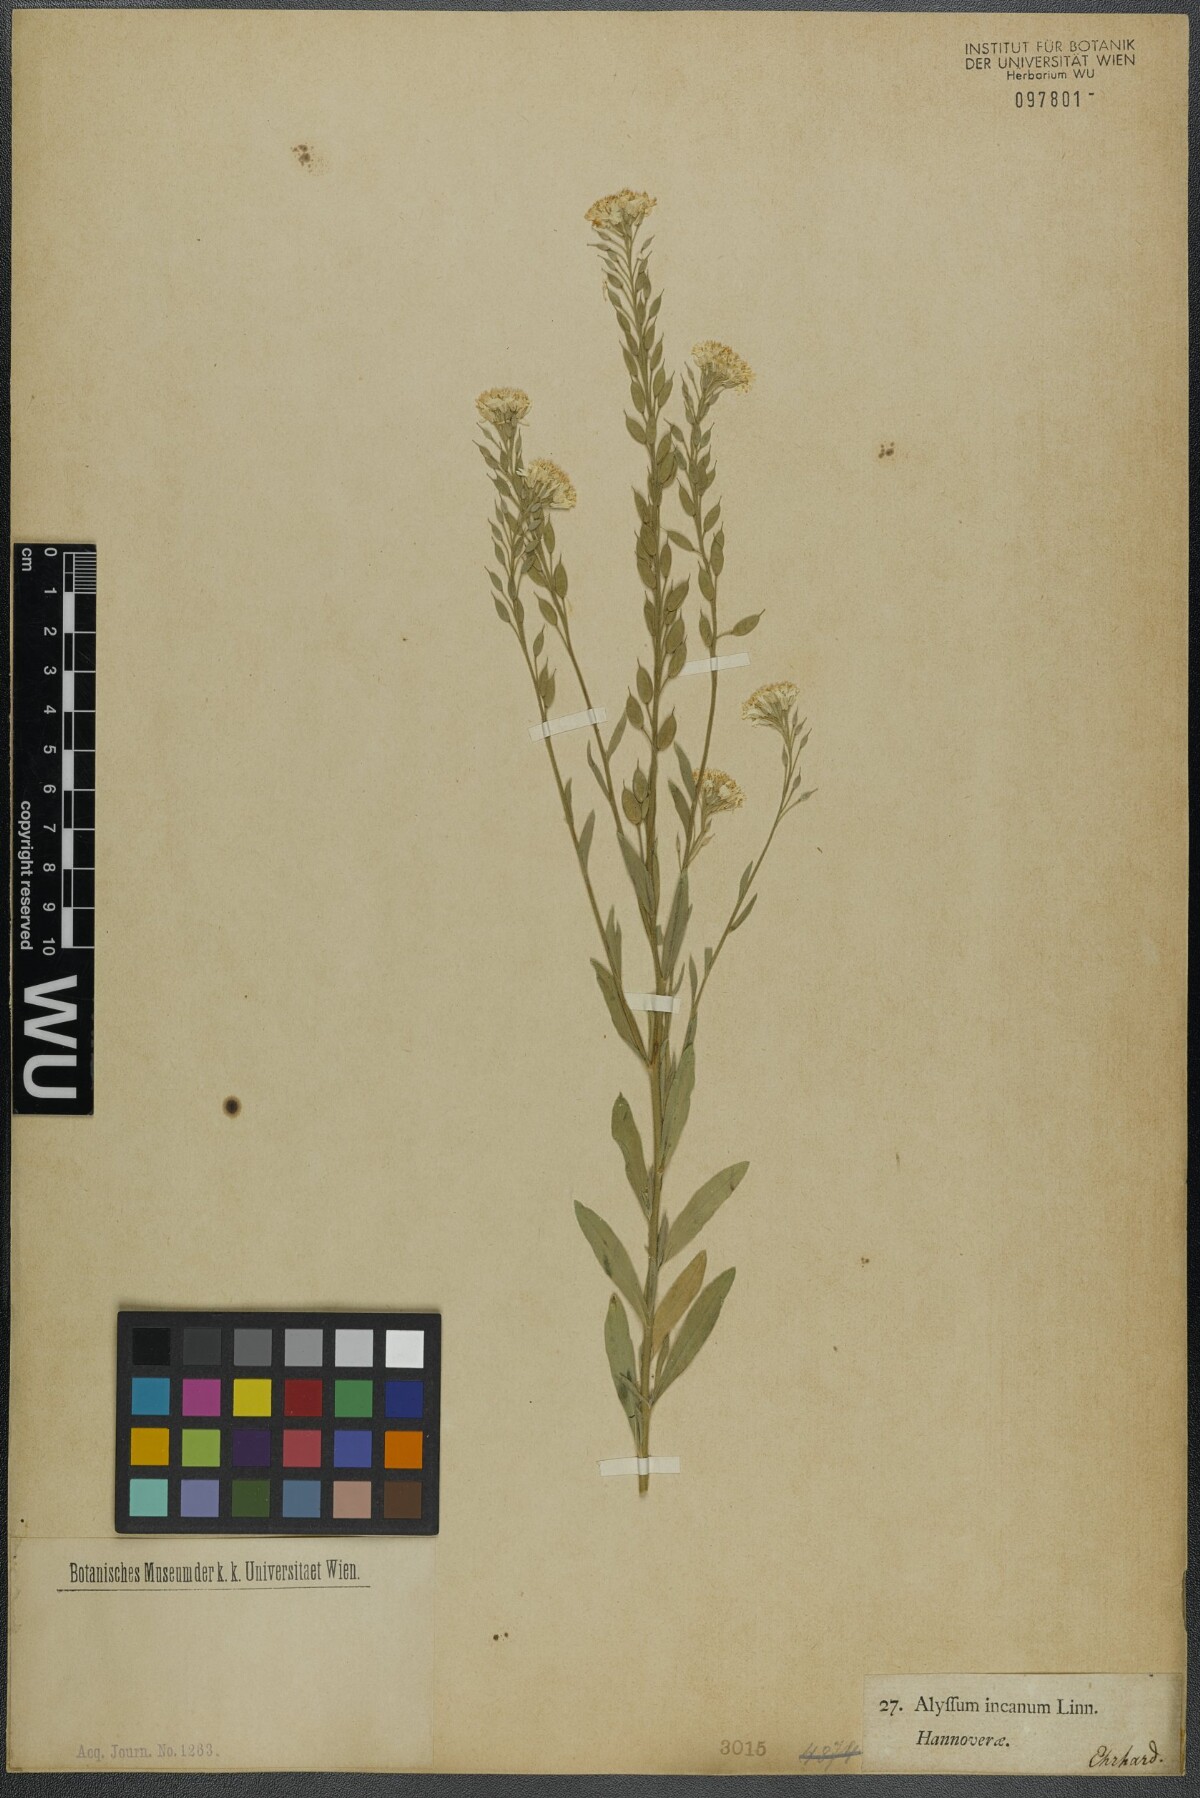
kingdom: Plantae
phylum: Tracheophyta
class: Magnoliopsida
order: Brassicales
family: Brassicaceae
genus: Berteroa
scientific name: Berteroa incana
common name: Hoary alison
